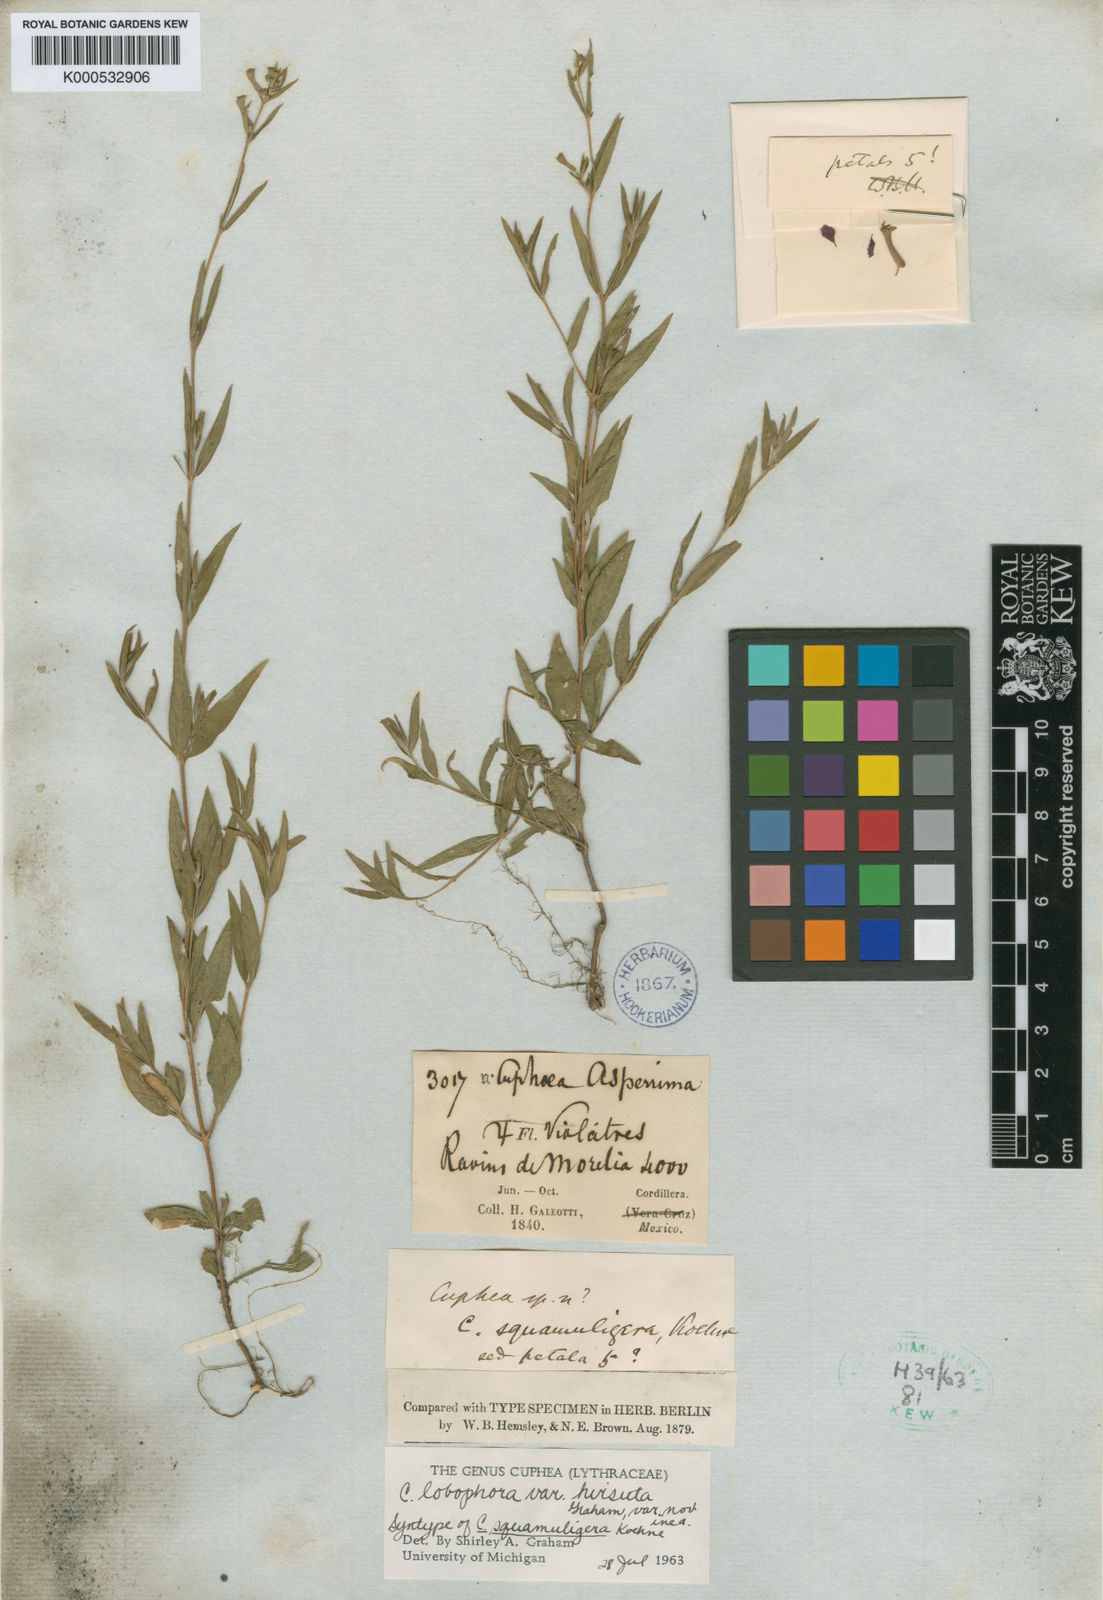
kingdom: Plantae
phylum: Tracheophyta
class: Magnoliopsida
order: Myrtales
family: Lythraceae
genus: Cuphea
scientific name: Cuphea lobophora
